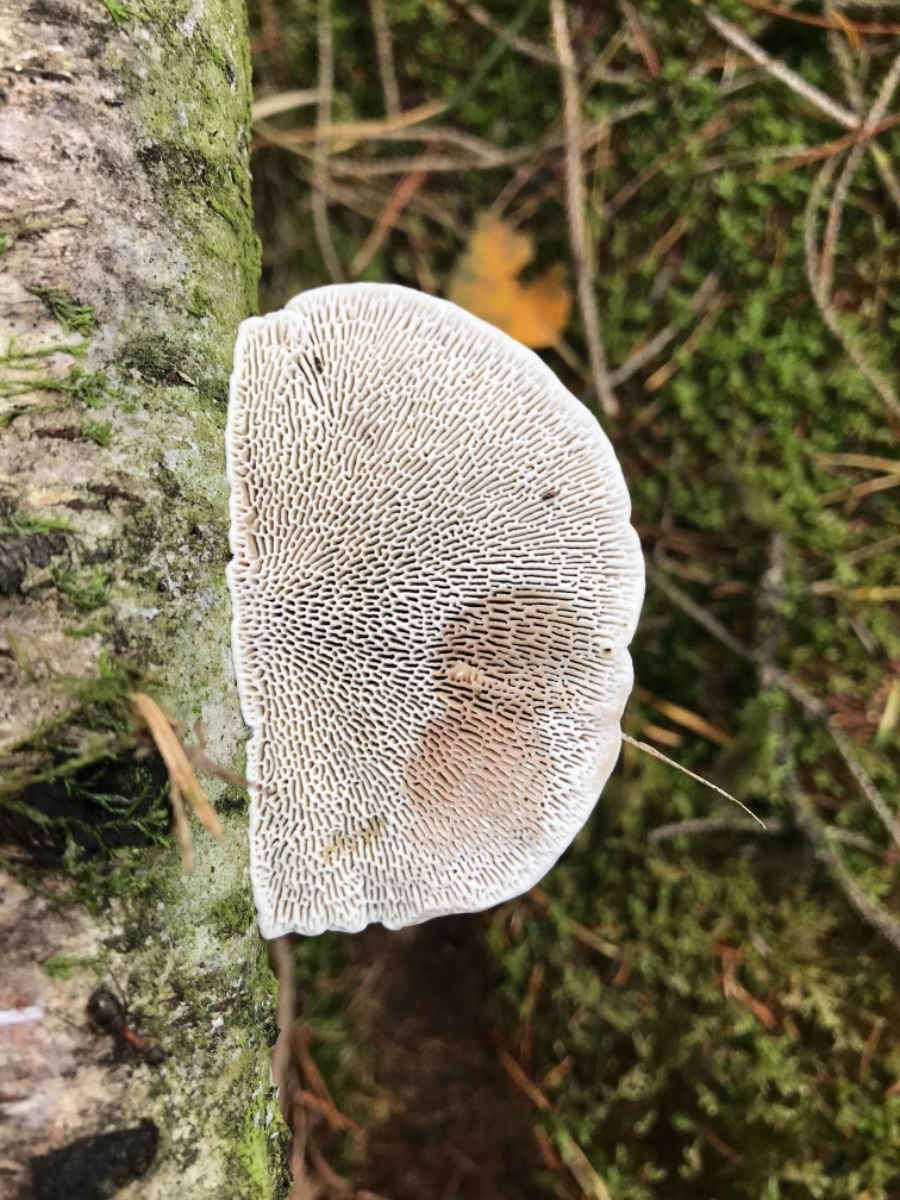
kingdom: Fungi
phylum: Basidiomycota
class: Agaricomycetes
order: Polyporales
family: Polyporaceae
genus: Daedaleopsis
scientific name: Daedaleopsis confragosa
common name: rødmende læderporesvamp
